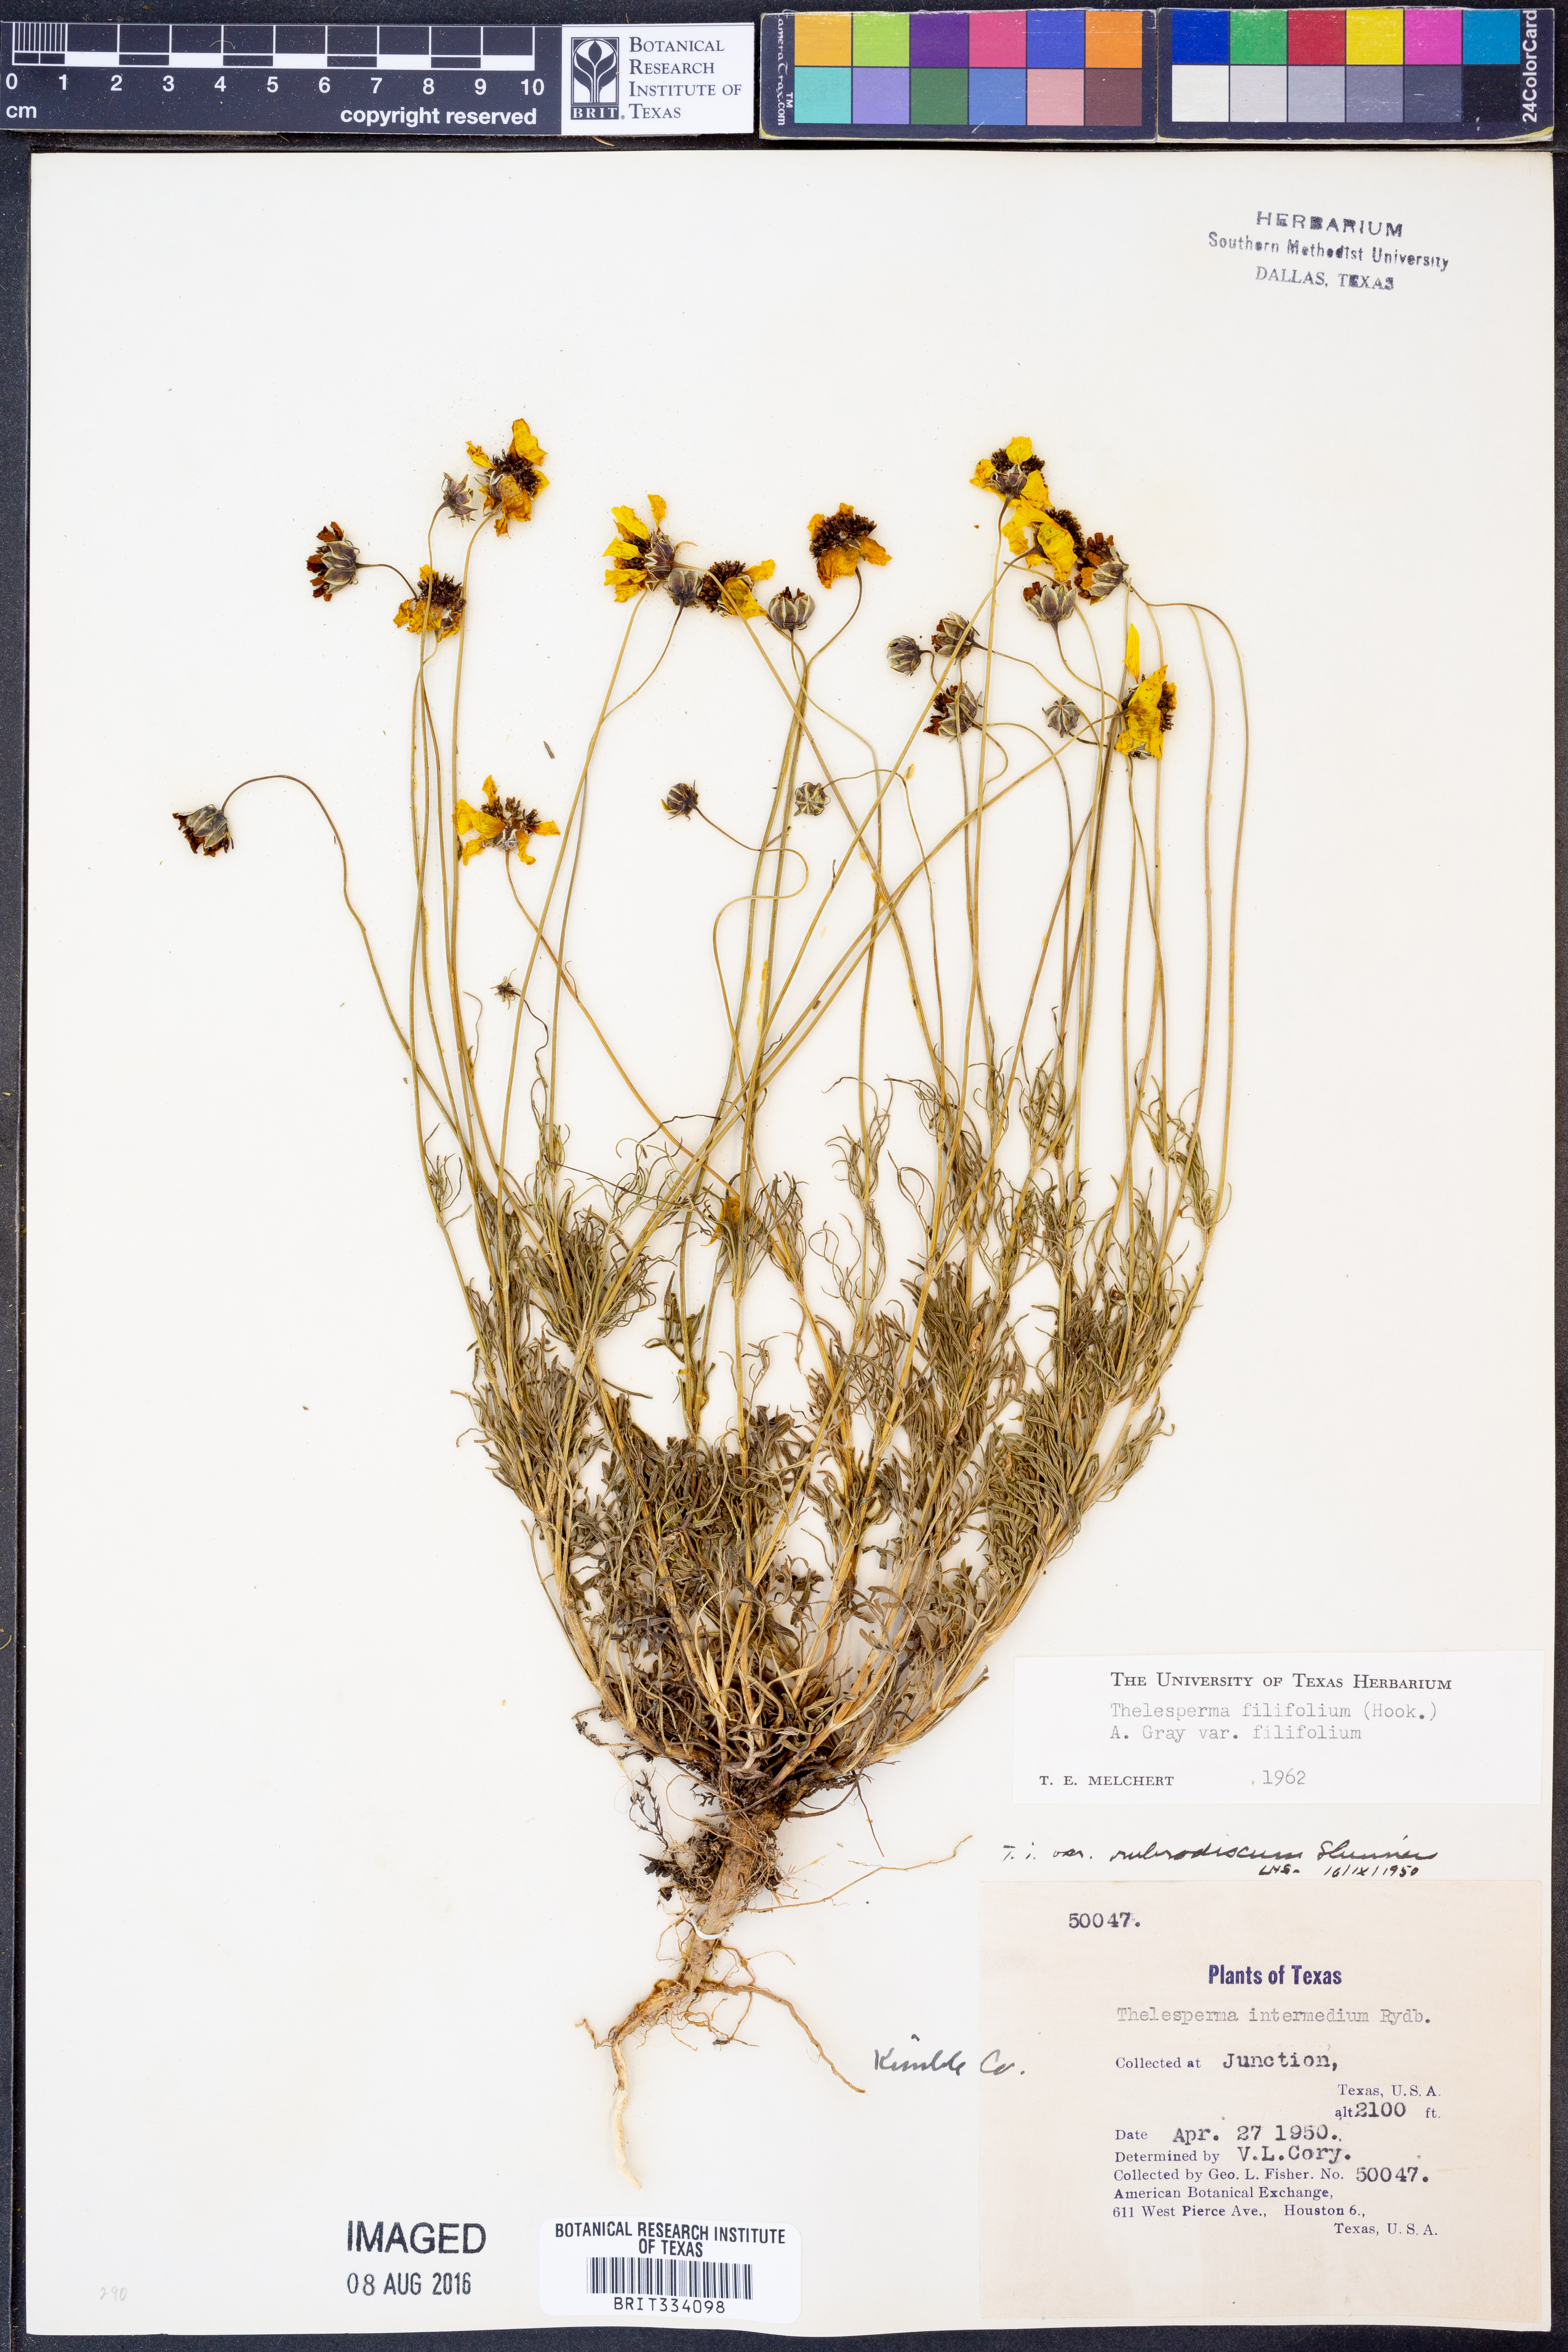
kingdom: Plantae
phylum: Tracheophyta
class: Magnoliopsida
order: Asterales
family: Asteraceae
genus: Thelesperma
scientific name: Thelesperma filifolium
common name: Stiff greenthread
